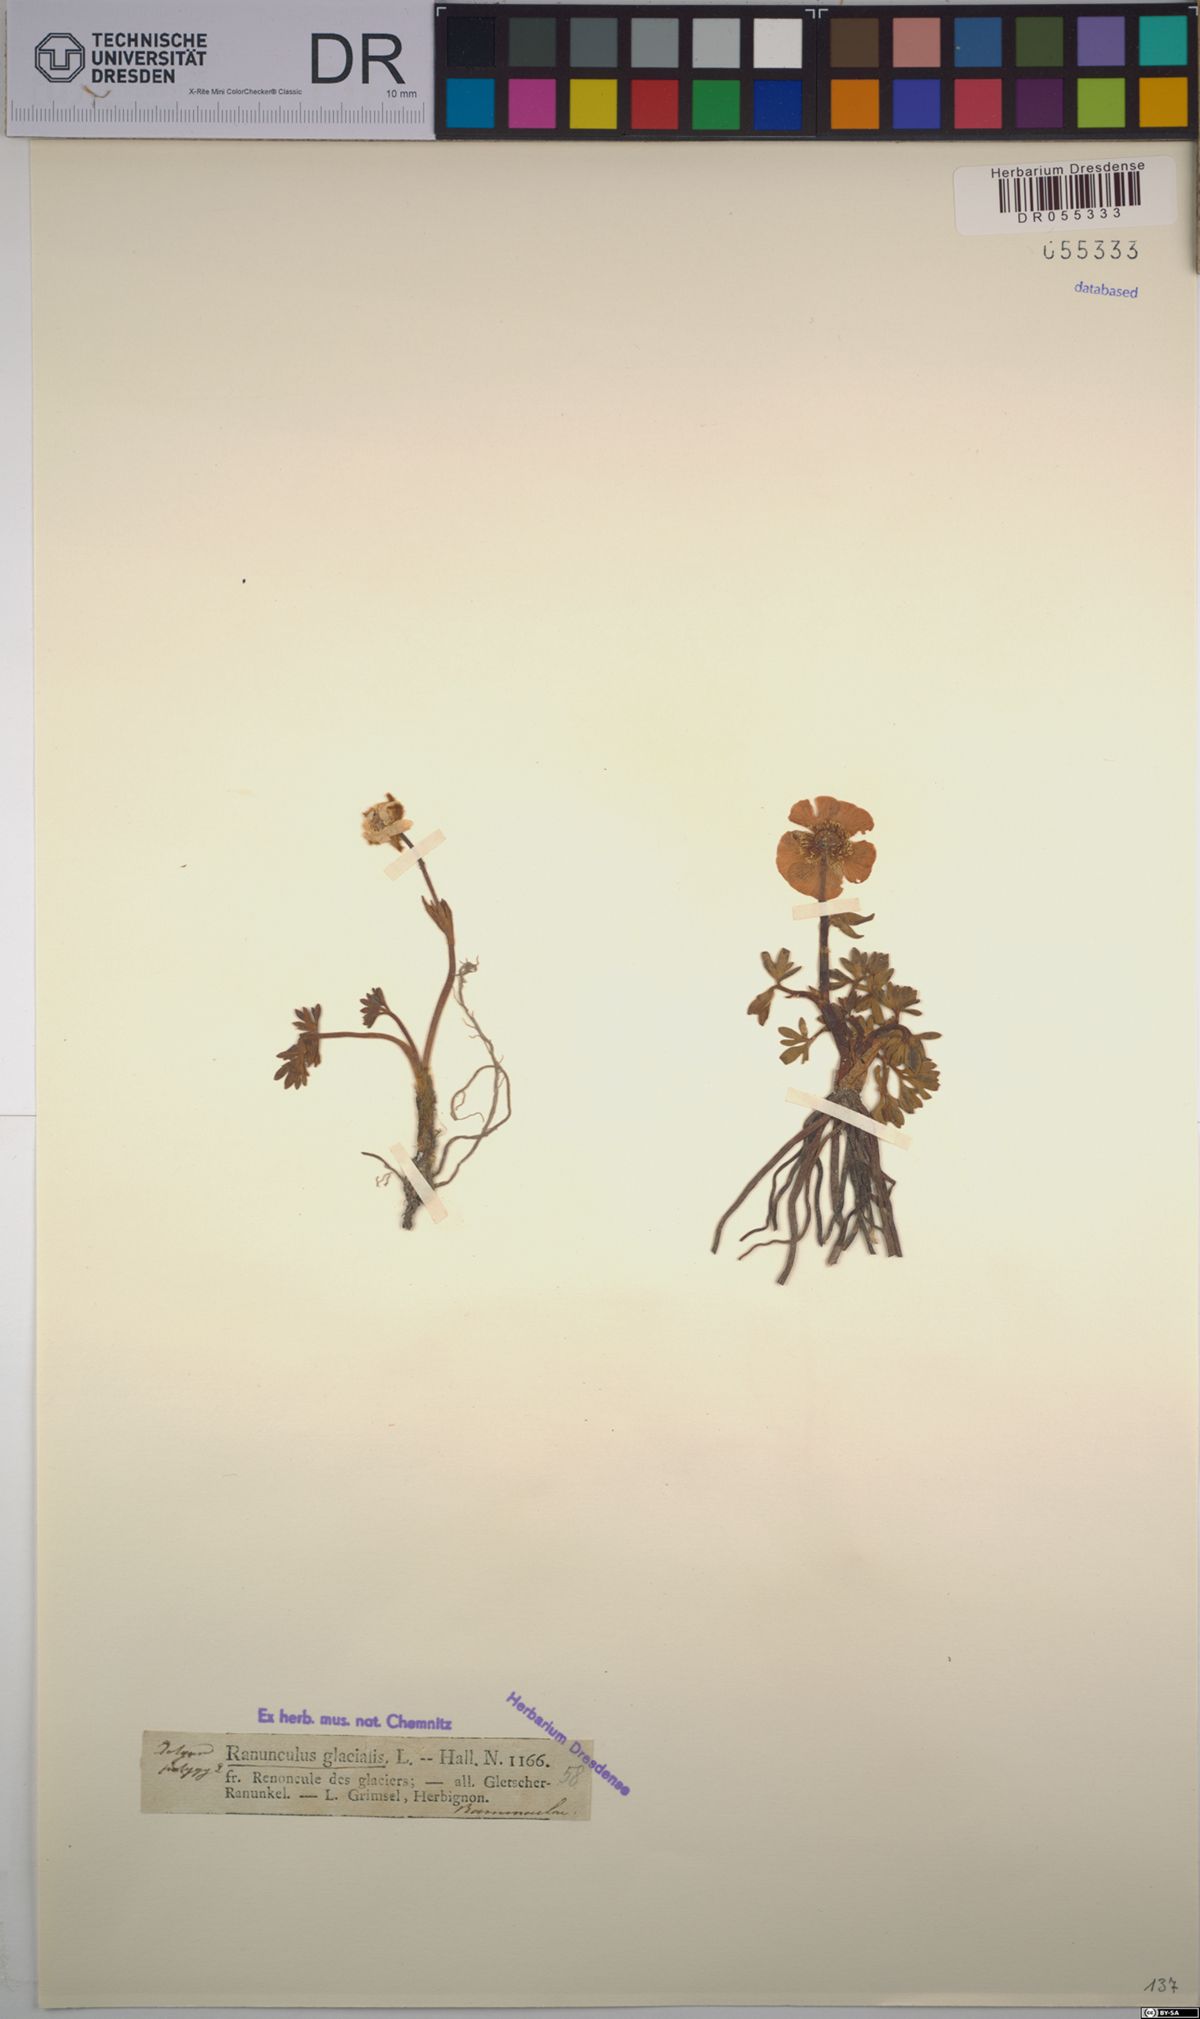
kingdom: Plantae
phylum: Tracheophyta
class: Magnoliopsida
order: Ranunculales
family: Ranunculaceae
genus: Ranunculus
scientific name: Ranunculus glacialis
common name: Glacier buttercup
